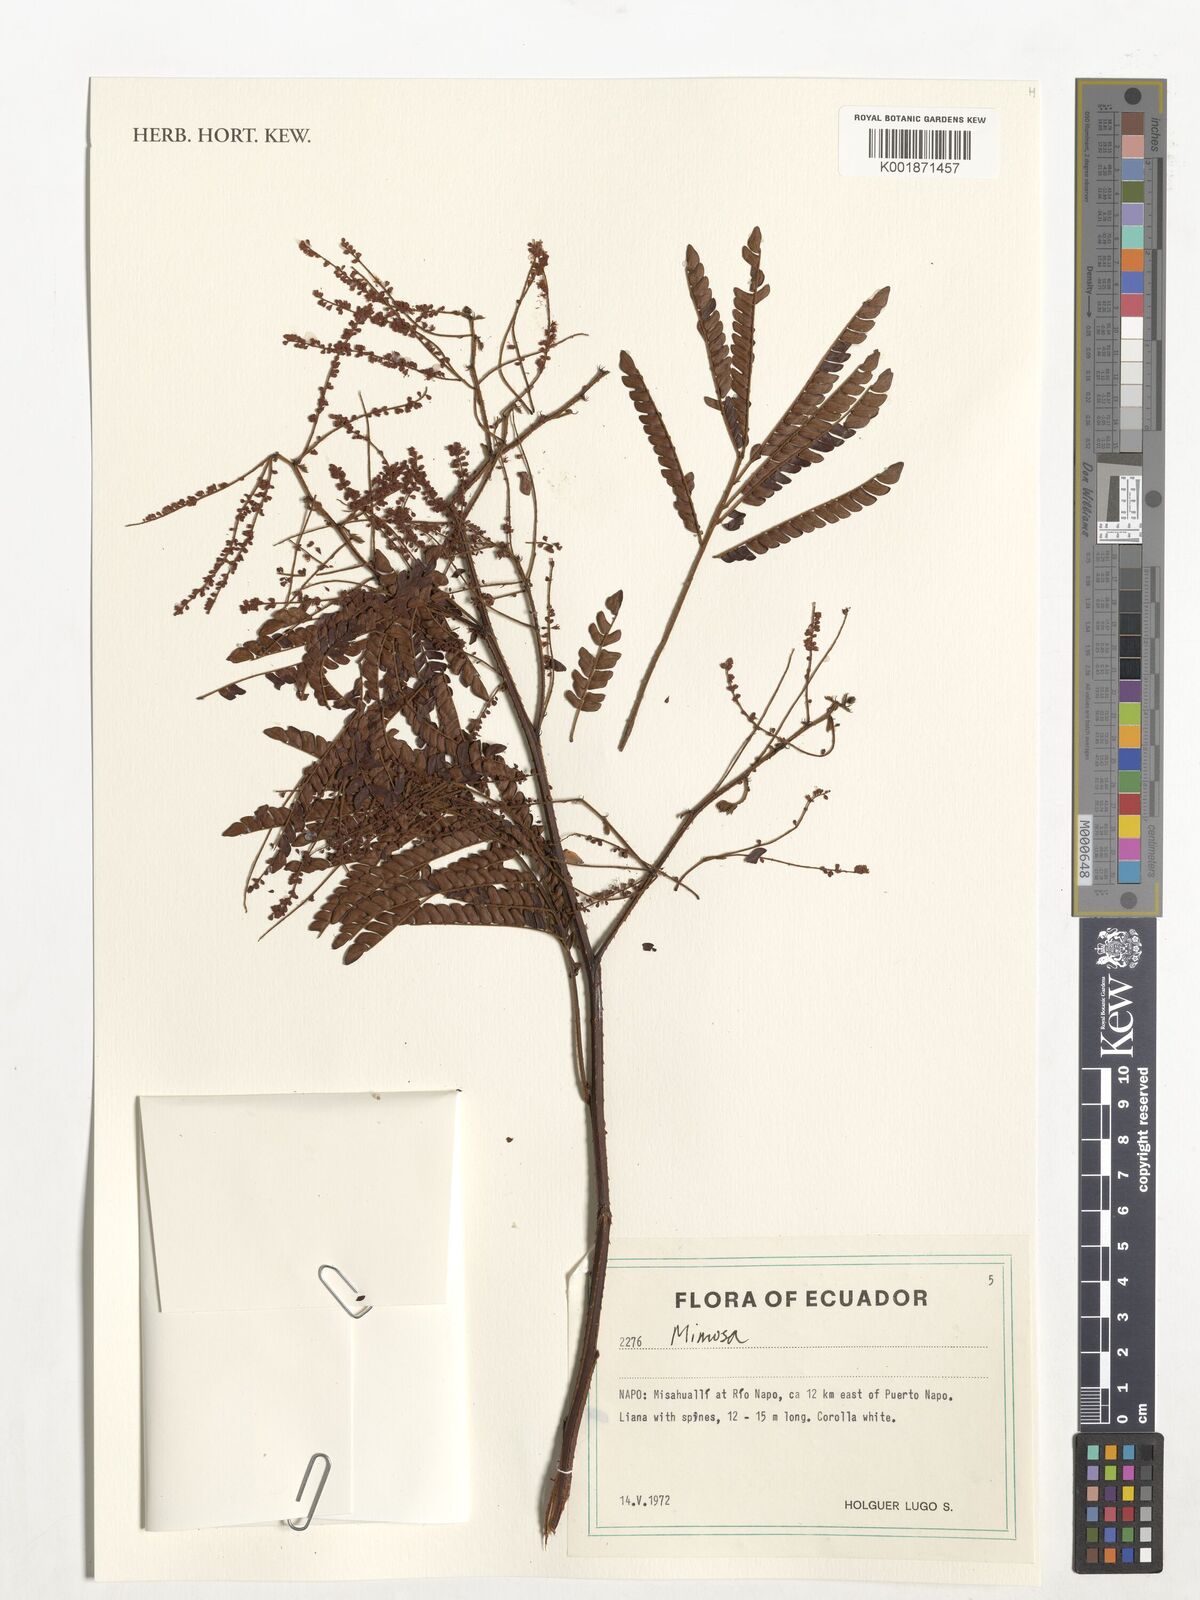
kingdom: Plantae
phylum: Tracheophyta
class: Magnoliopsida
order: Fabales
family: Fabaceae
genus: Mimosa
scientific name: Mimosa
